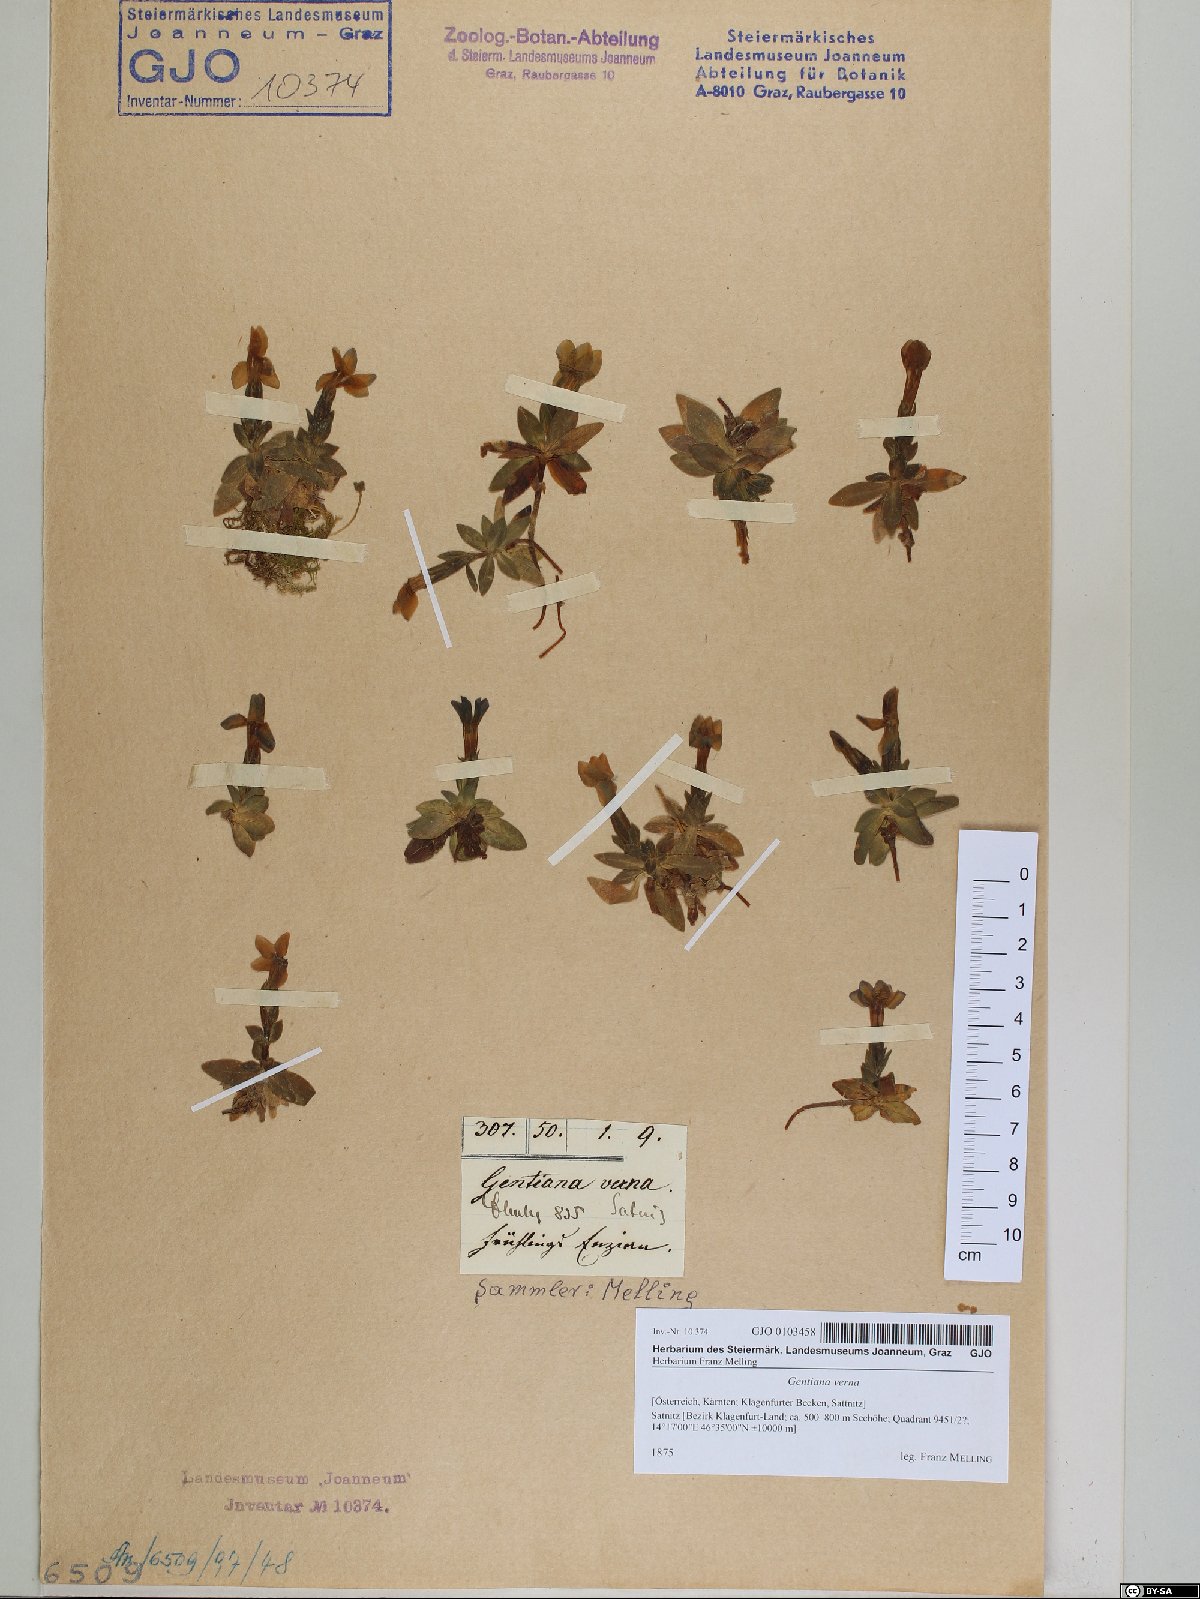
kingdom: Plantae
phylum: Tracheophyta
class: Magnoliopsida
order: Gentianales
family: Gentianaceae
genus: Gentiana
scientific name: Gentiana verna
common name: Spring gentian
